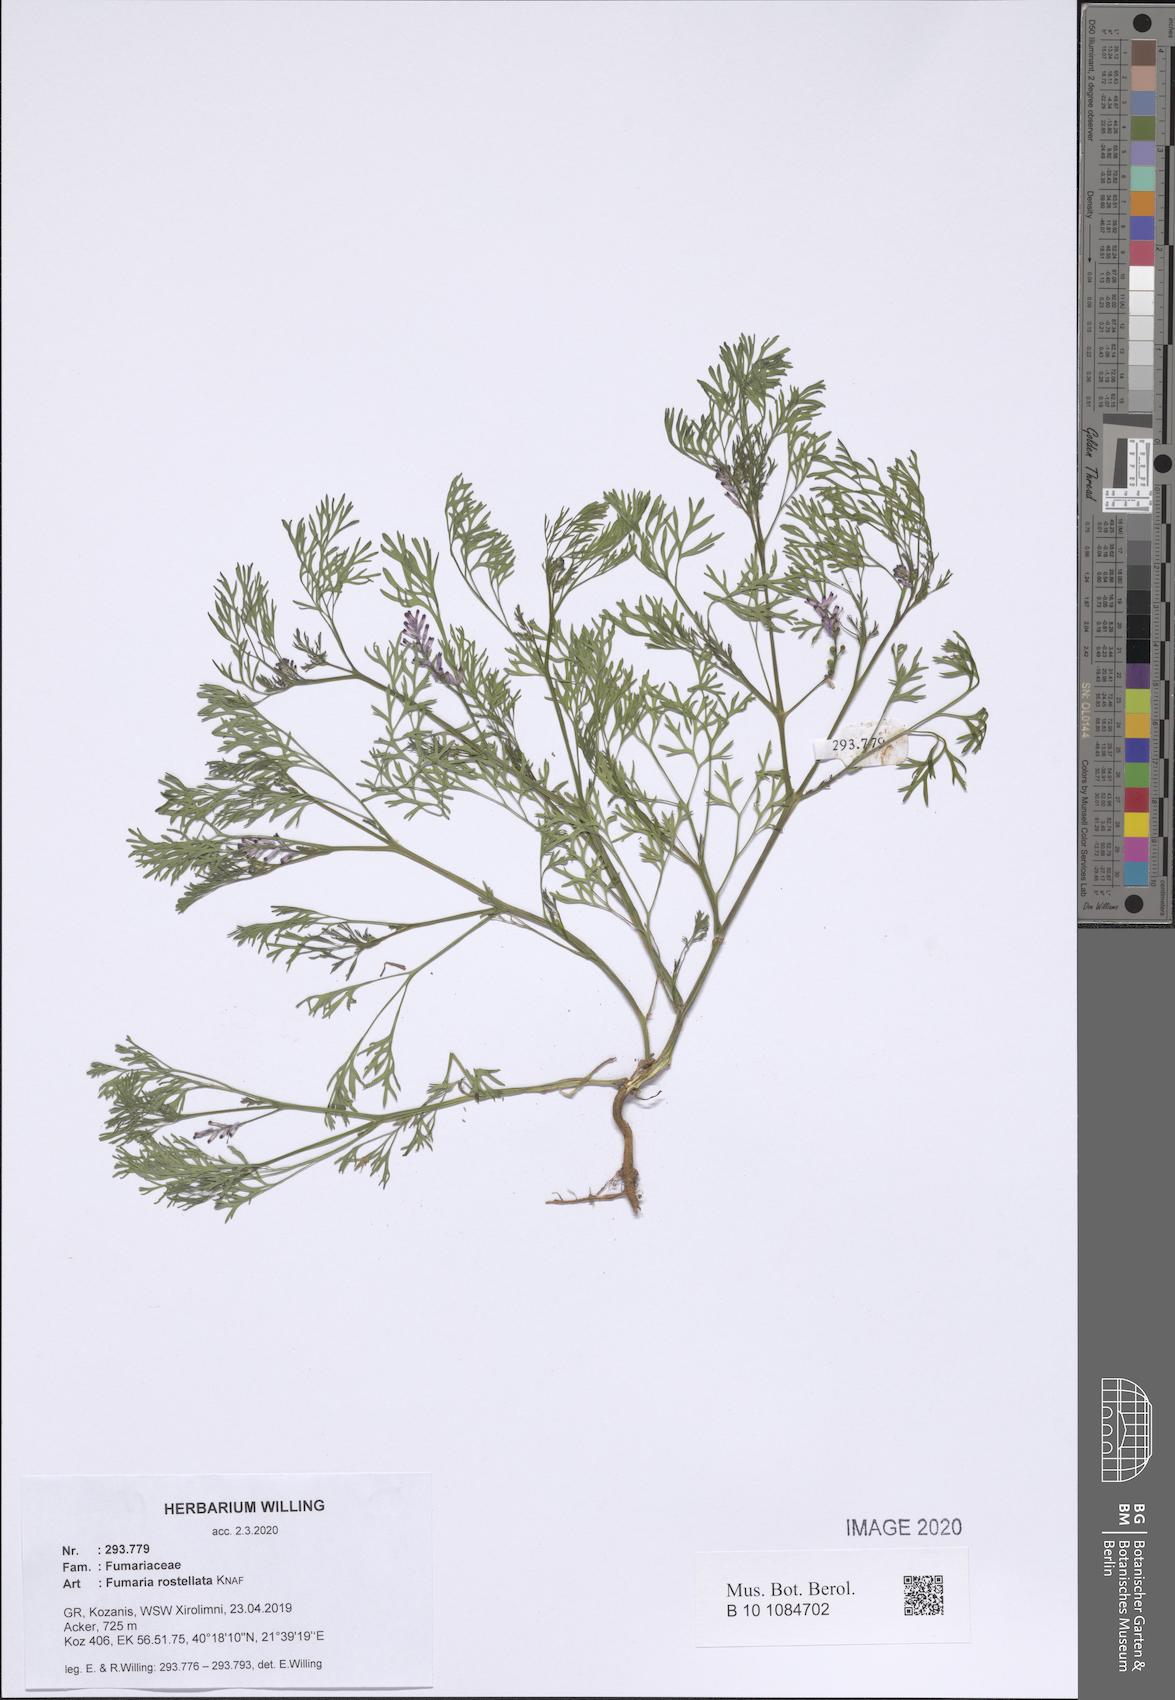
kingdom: Plantae
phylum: Tracheophyta
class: Magnoliopsida
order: Ranunculales
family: Papaveraceae
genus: Fumaria
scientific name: Fumaria rostellata
